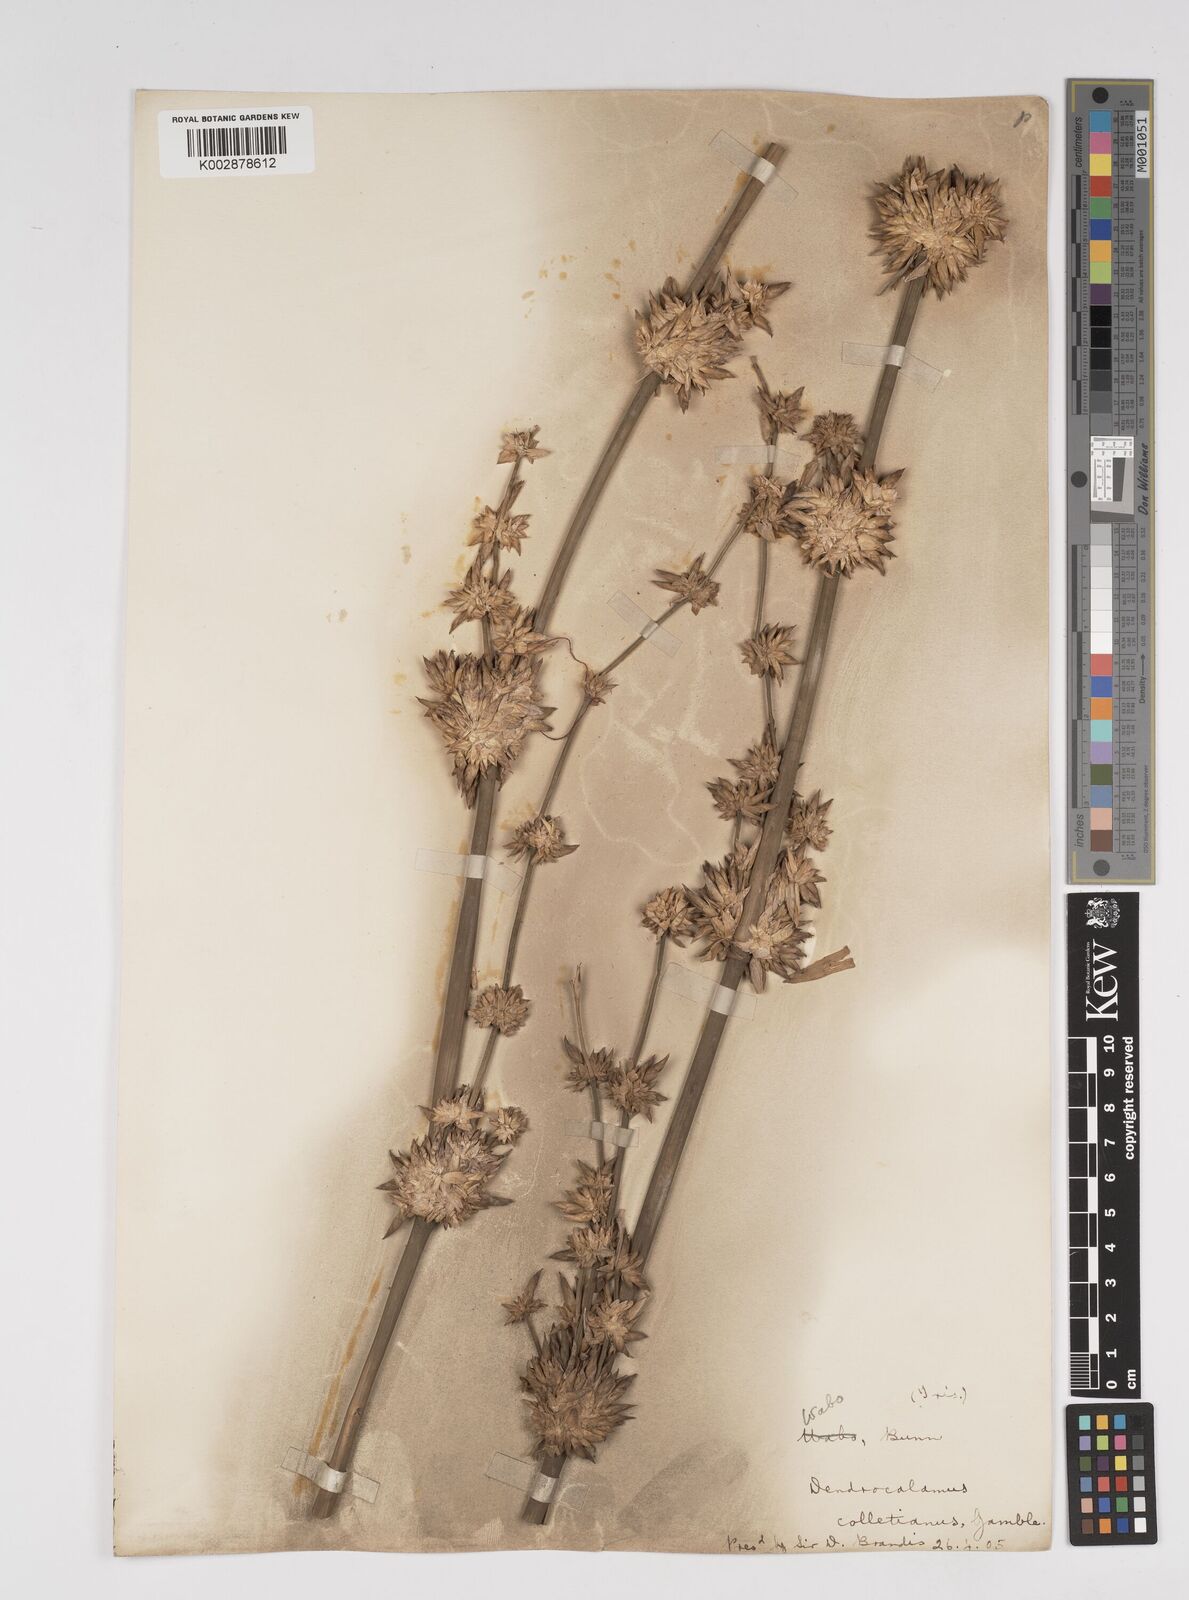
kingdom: Plantae
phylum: Tracheophyta
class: Liliopsida
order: Poales
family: Poaceae
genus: Dendrocalamus
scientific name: Dendrocalamus collettianus
